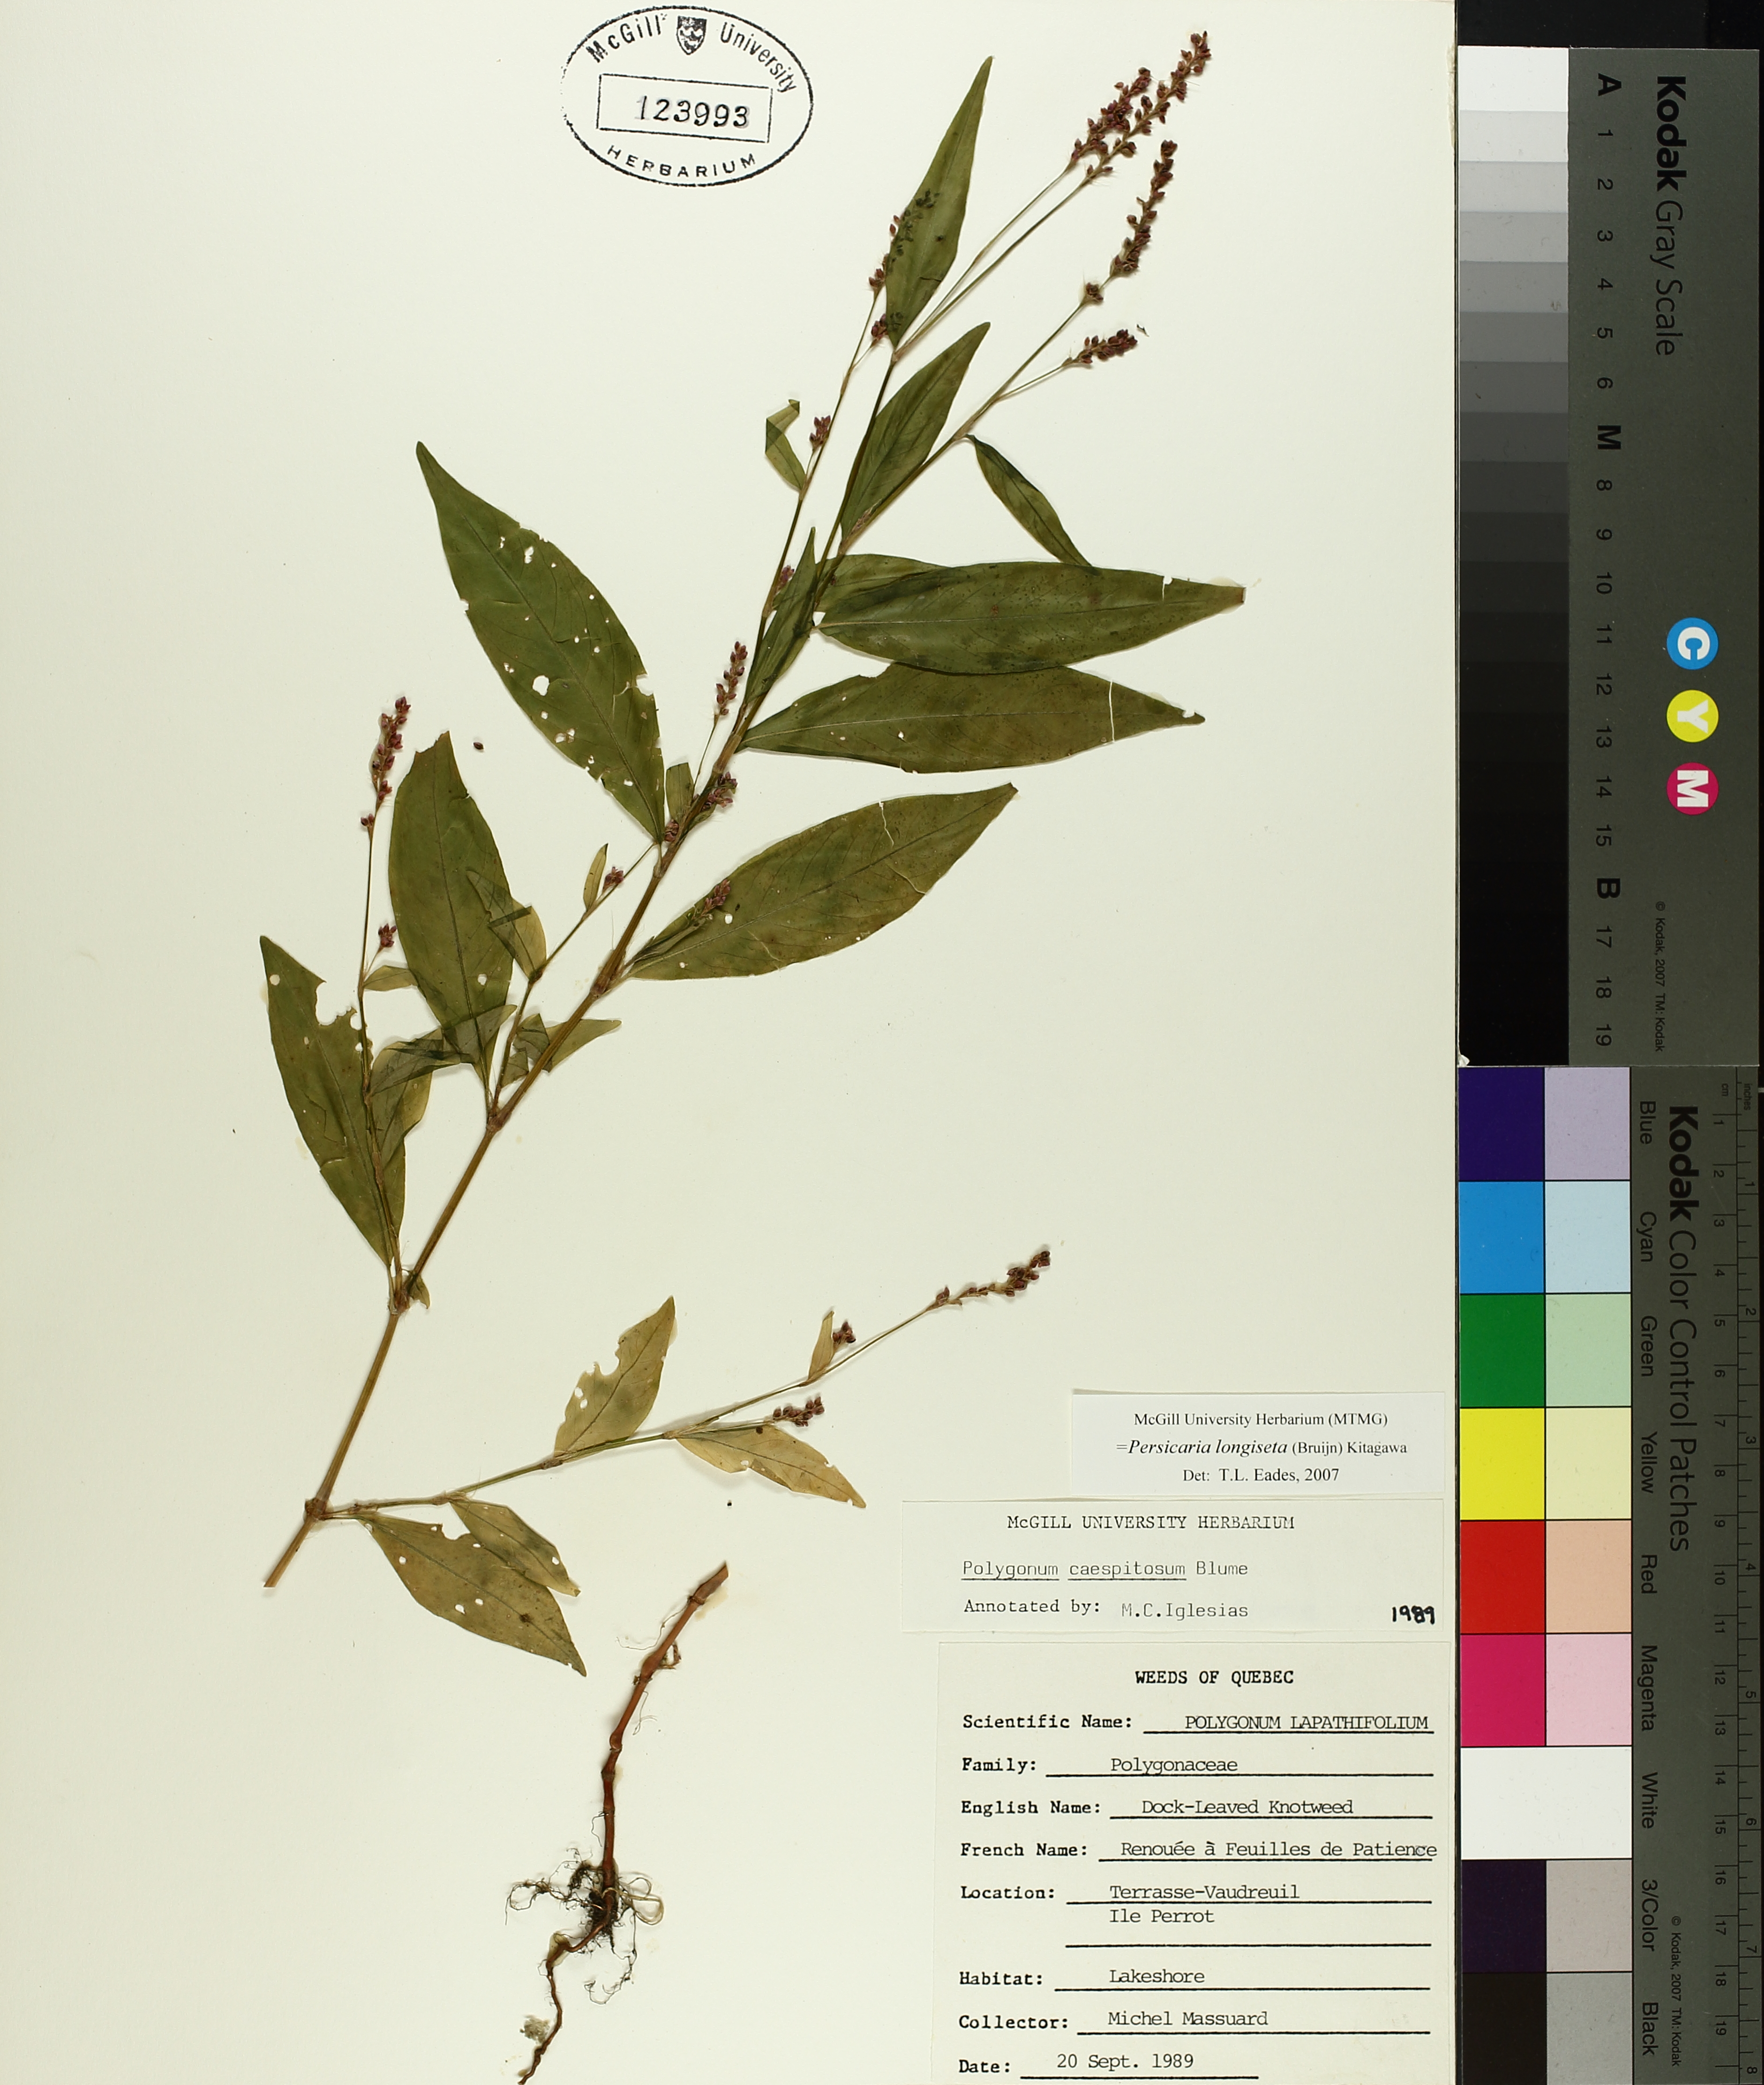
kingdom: Plantae
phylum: Tracheophyta
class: Magnoliopsida
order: Caryophyllales
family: Polygonaceae
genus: Persicaria
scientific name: Persicaria lapathifolia
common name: Curlytop knotweed
